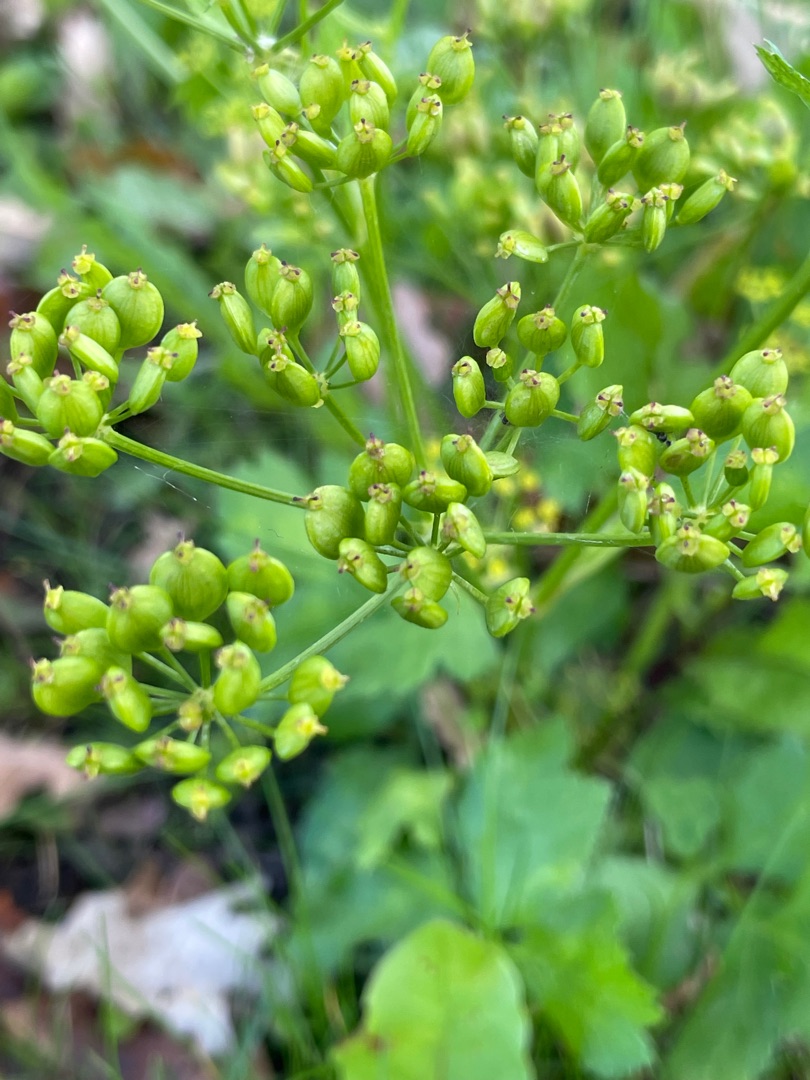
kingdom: Plantae
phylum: Tracheophyta
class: Magnoliopsida
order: Apiales
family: Apiaceae
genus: Pastinaca
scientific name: Pastinaca sativa
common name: Pastinak
